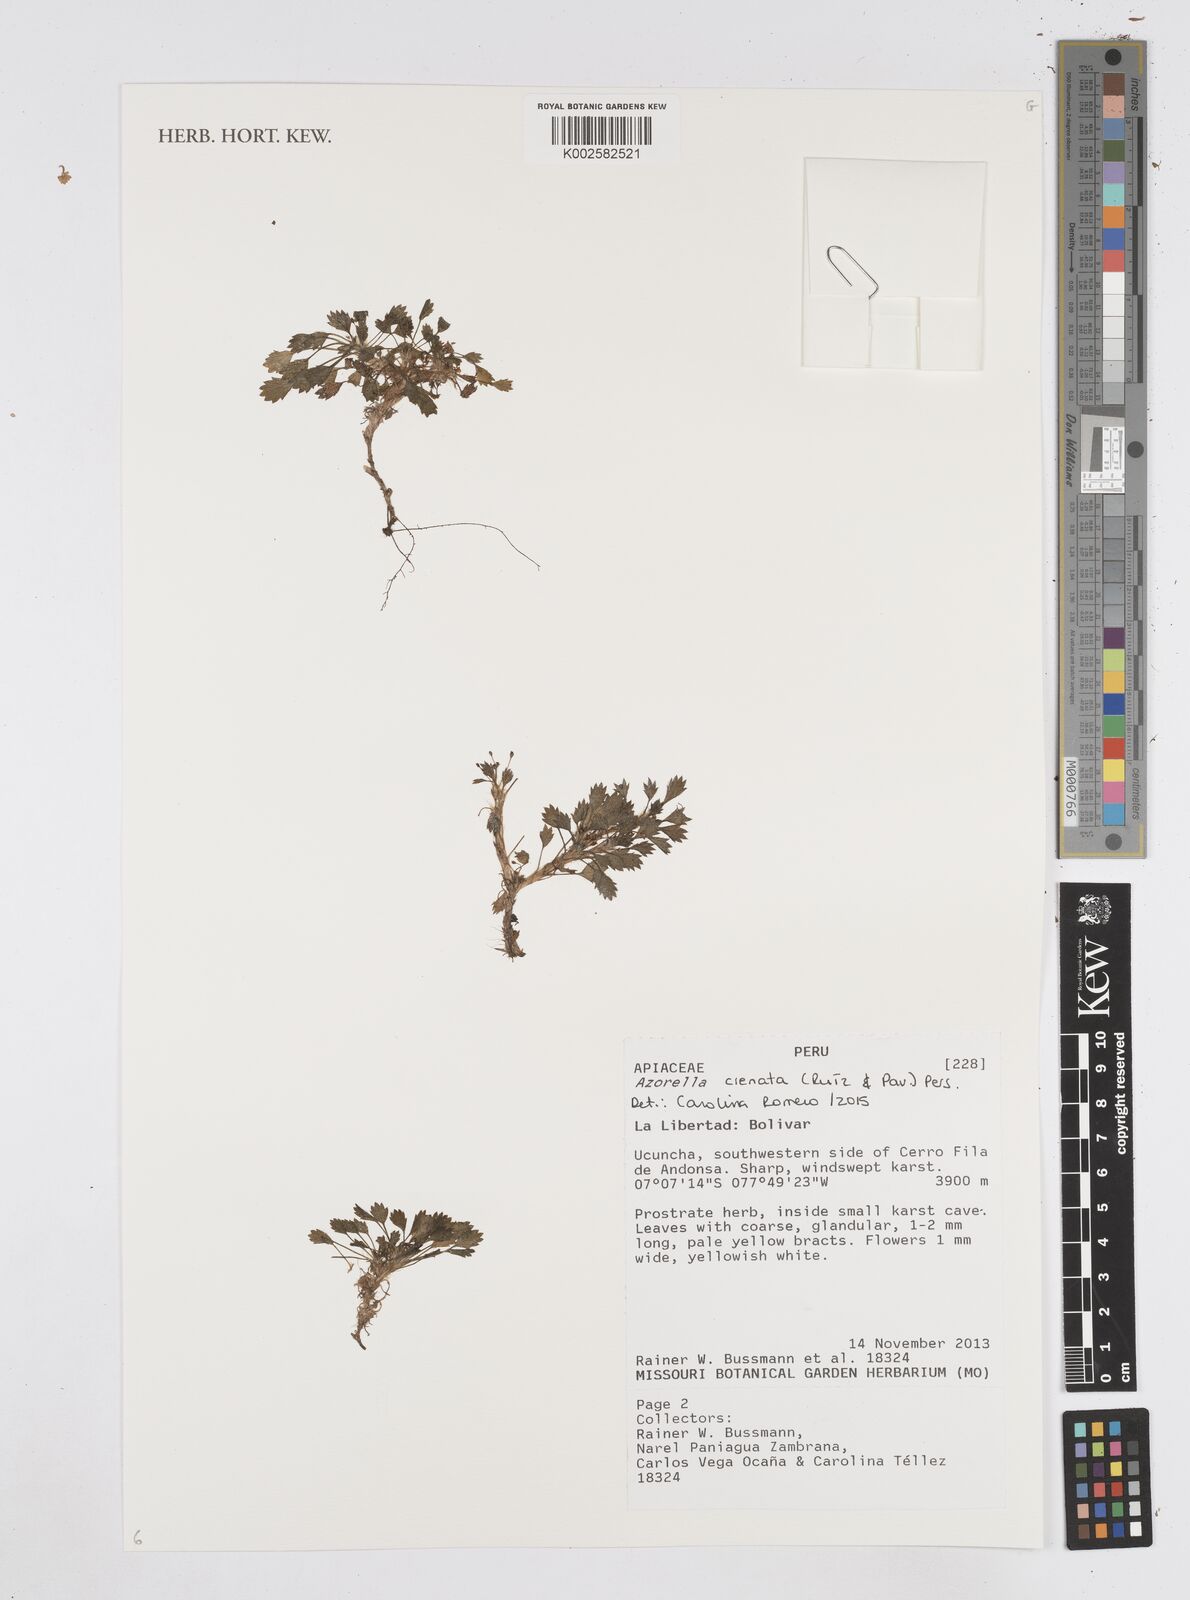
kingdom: Plantae
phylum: Tracheophyta
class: Magnoliopsida
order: Apiales
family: Apiaceae
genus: Azorella
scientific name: Azorella crenata
